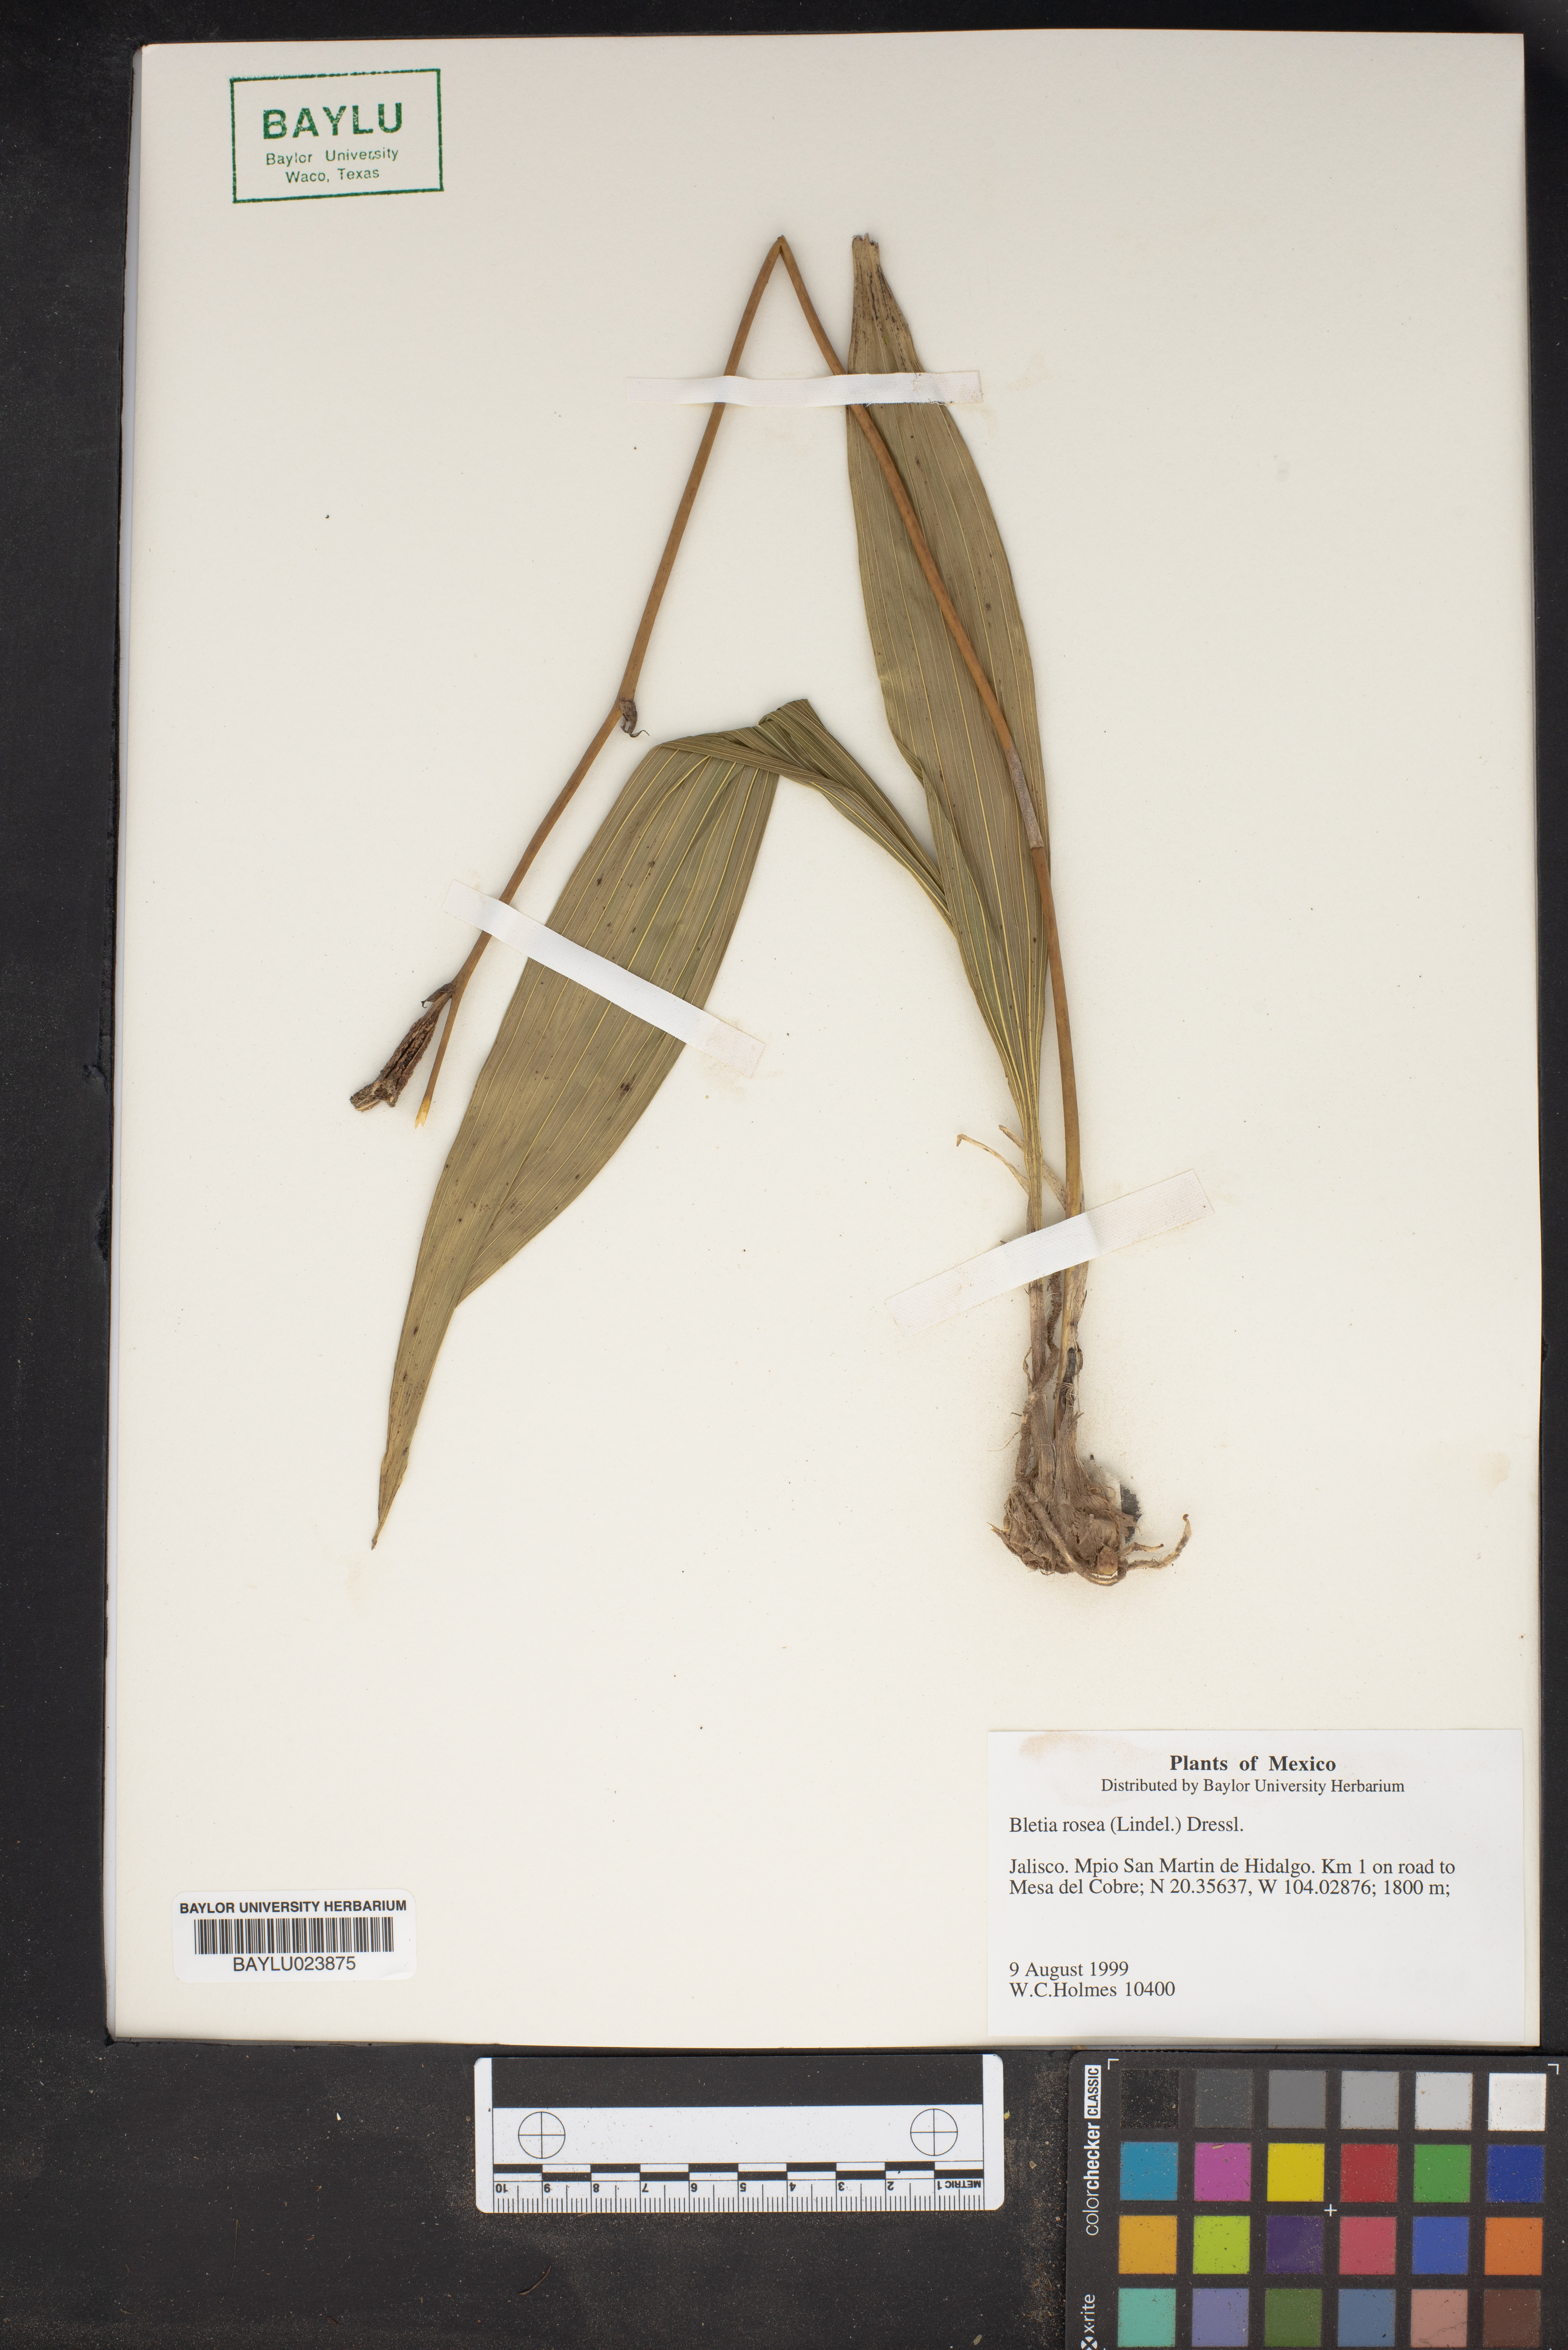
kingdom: Plantae
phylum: Tracheophyta
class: Liliopsida
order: Asparagales
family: Orchidaceae
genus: Bletia
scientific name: Bletia purpurata
